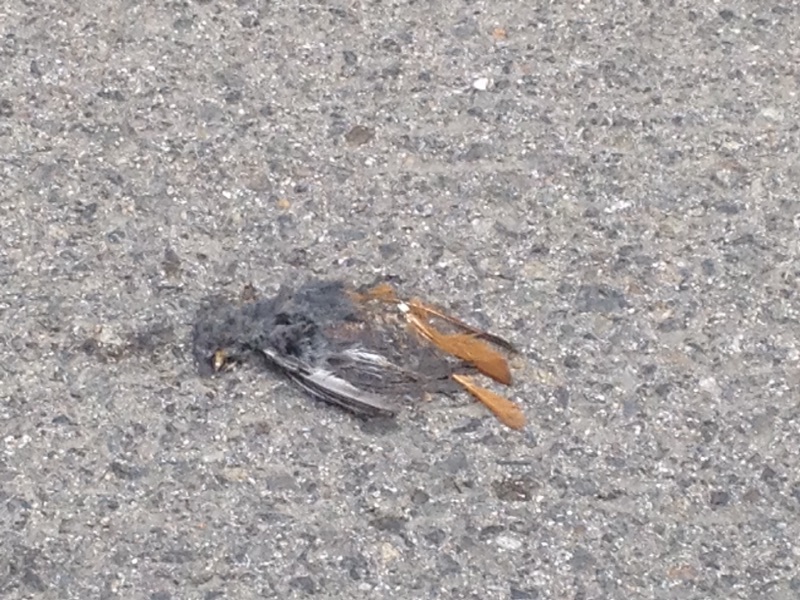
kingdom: Animalia
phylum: Chordata
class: Aves
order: Passeriformes
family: Muscicapidae
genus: Phoenicurus
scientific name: Phoenicurus
